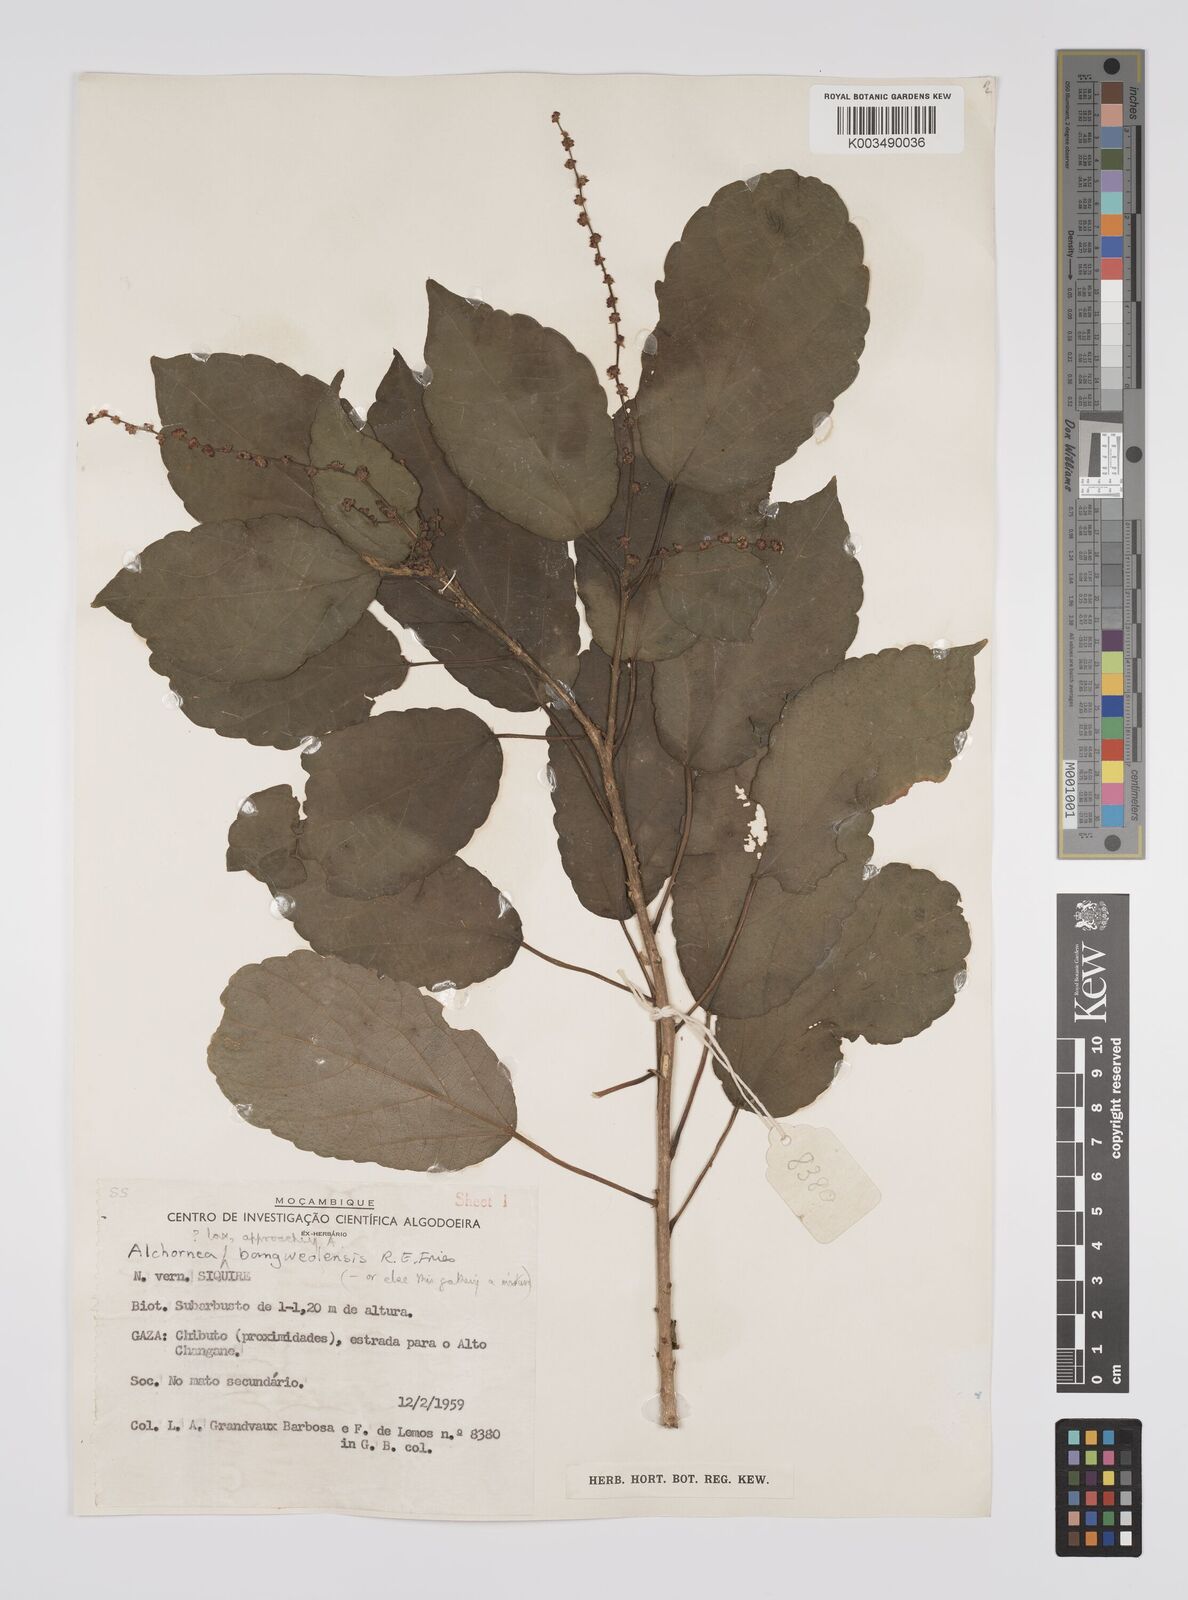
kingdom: Plantae
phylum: Tracheophyta
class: Magnoliopsida
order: Malpighiales
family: Euphorbiaceae
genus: Alchornea
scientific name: Alchornea laxiflora
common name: Lowveld bead-string
